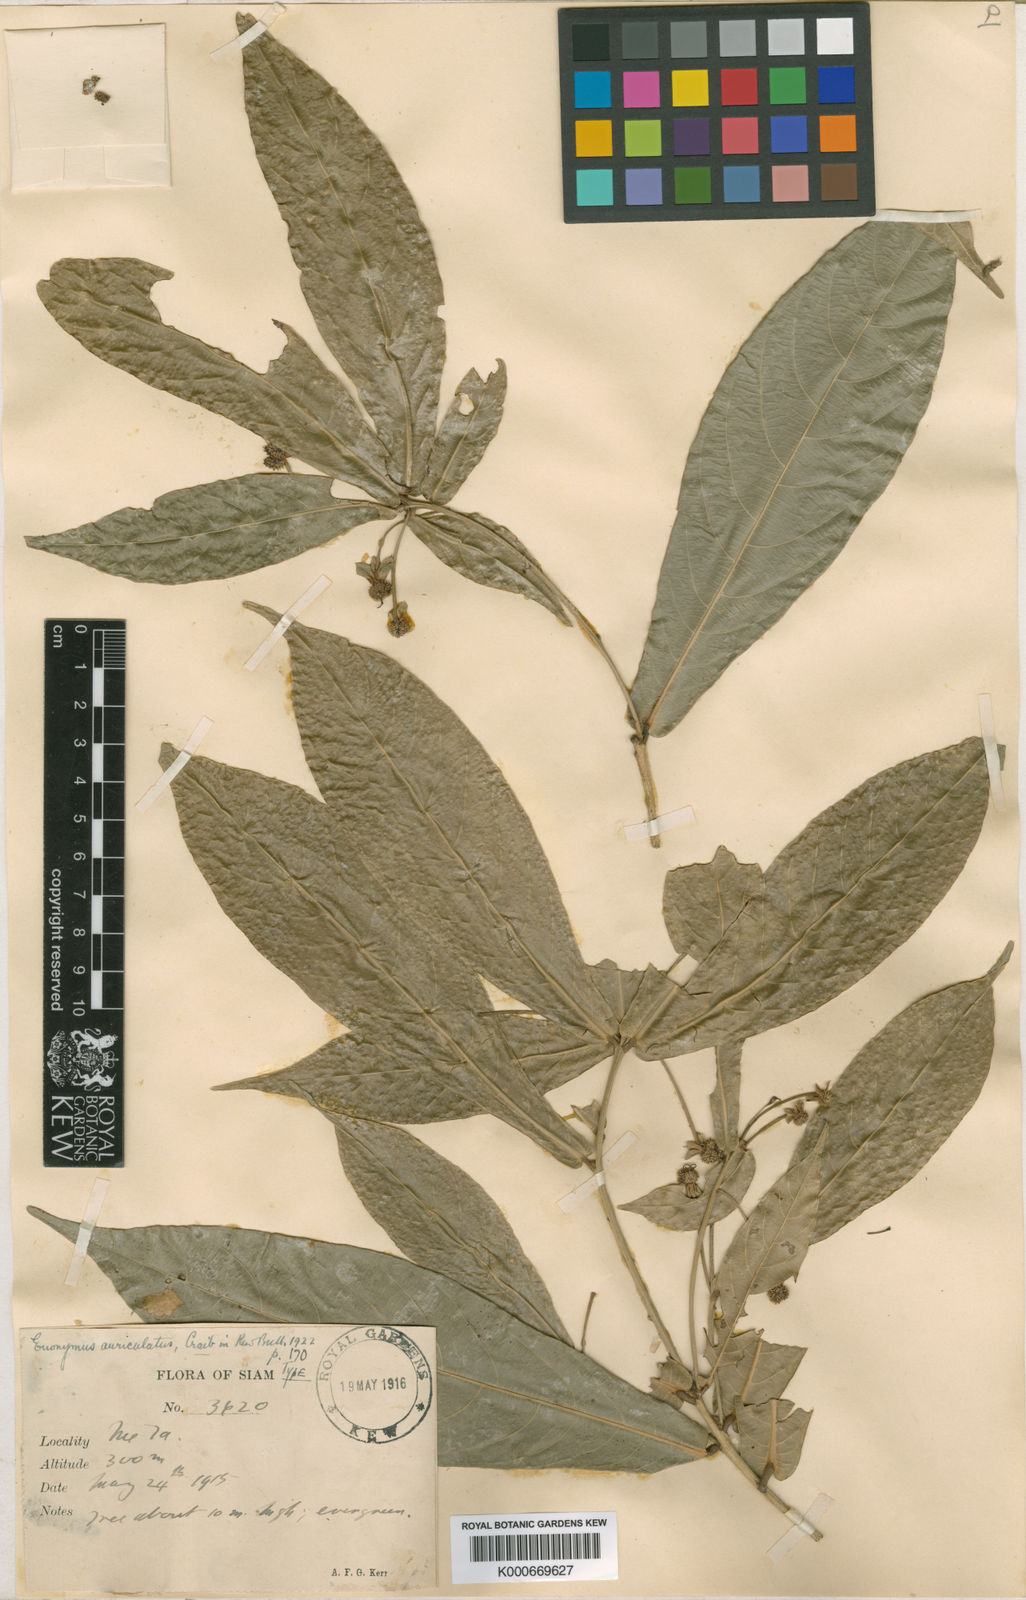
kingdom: Plantae
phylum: Tracheophyta
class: Magnoliopsida
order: Celastrales
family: Celastraceae
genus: Euonymus
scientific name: Euonymus echinatus
